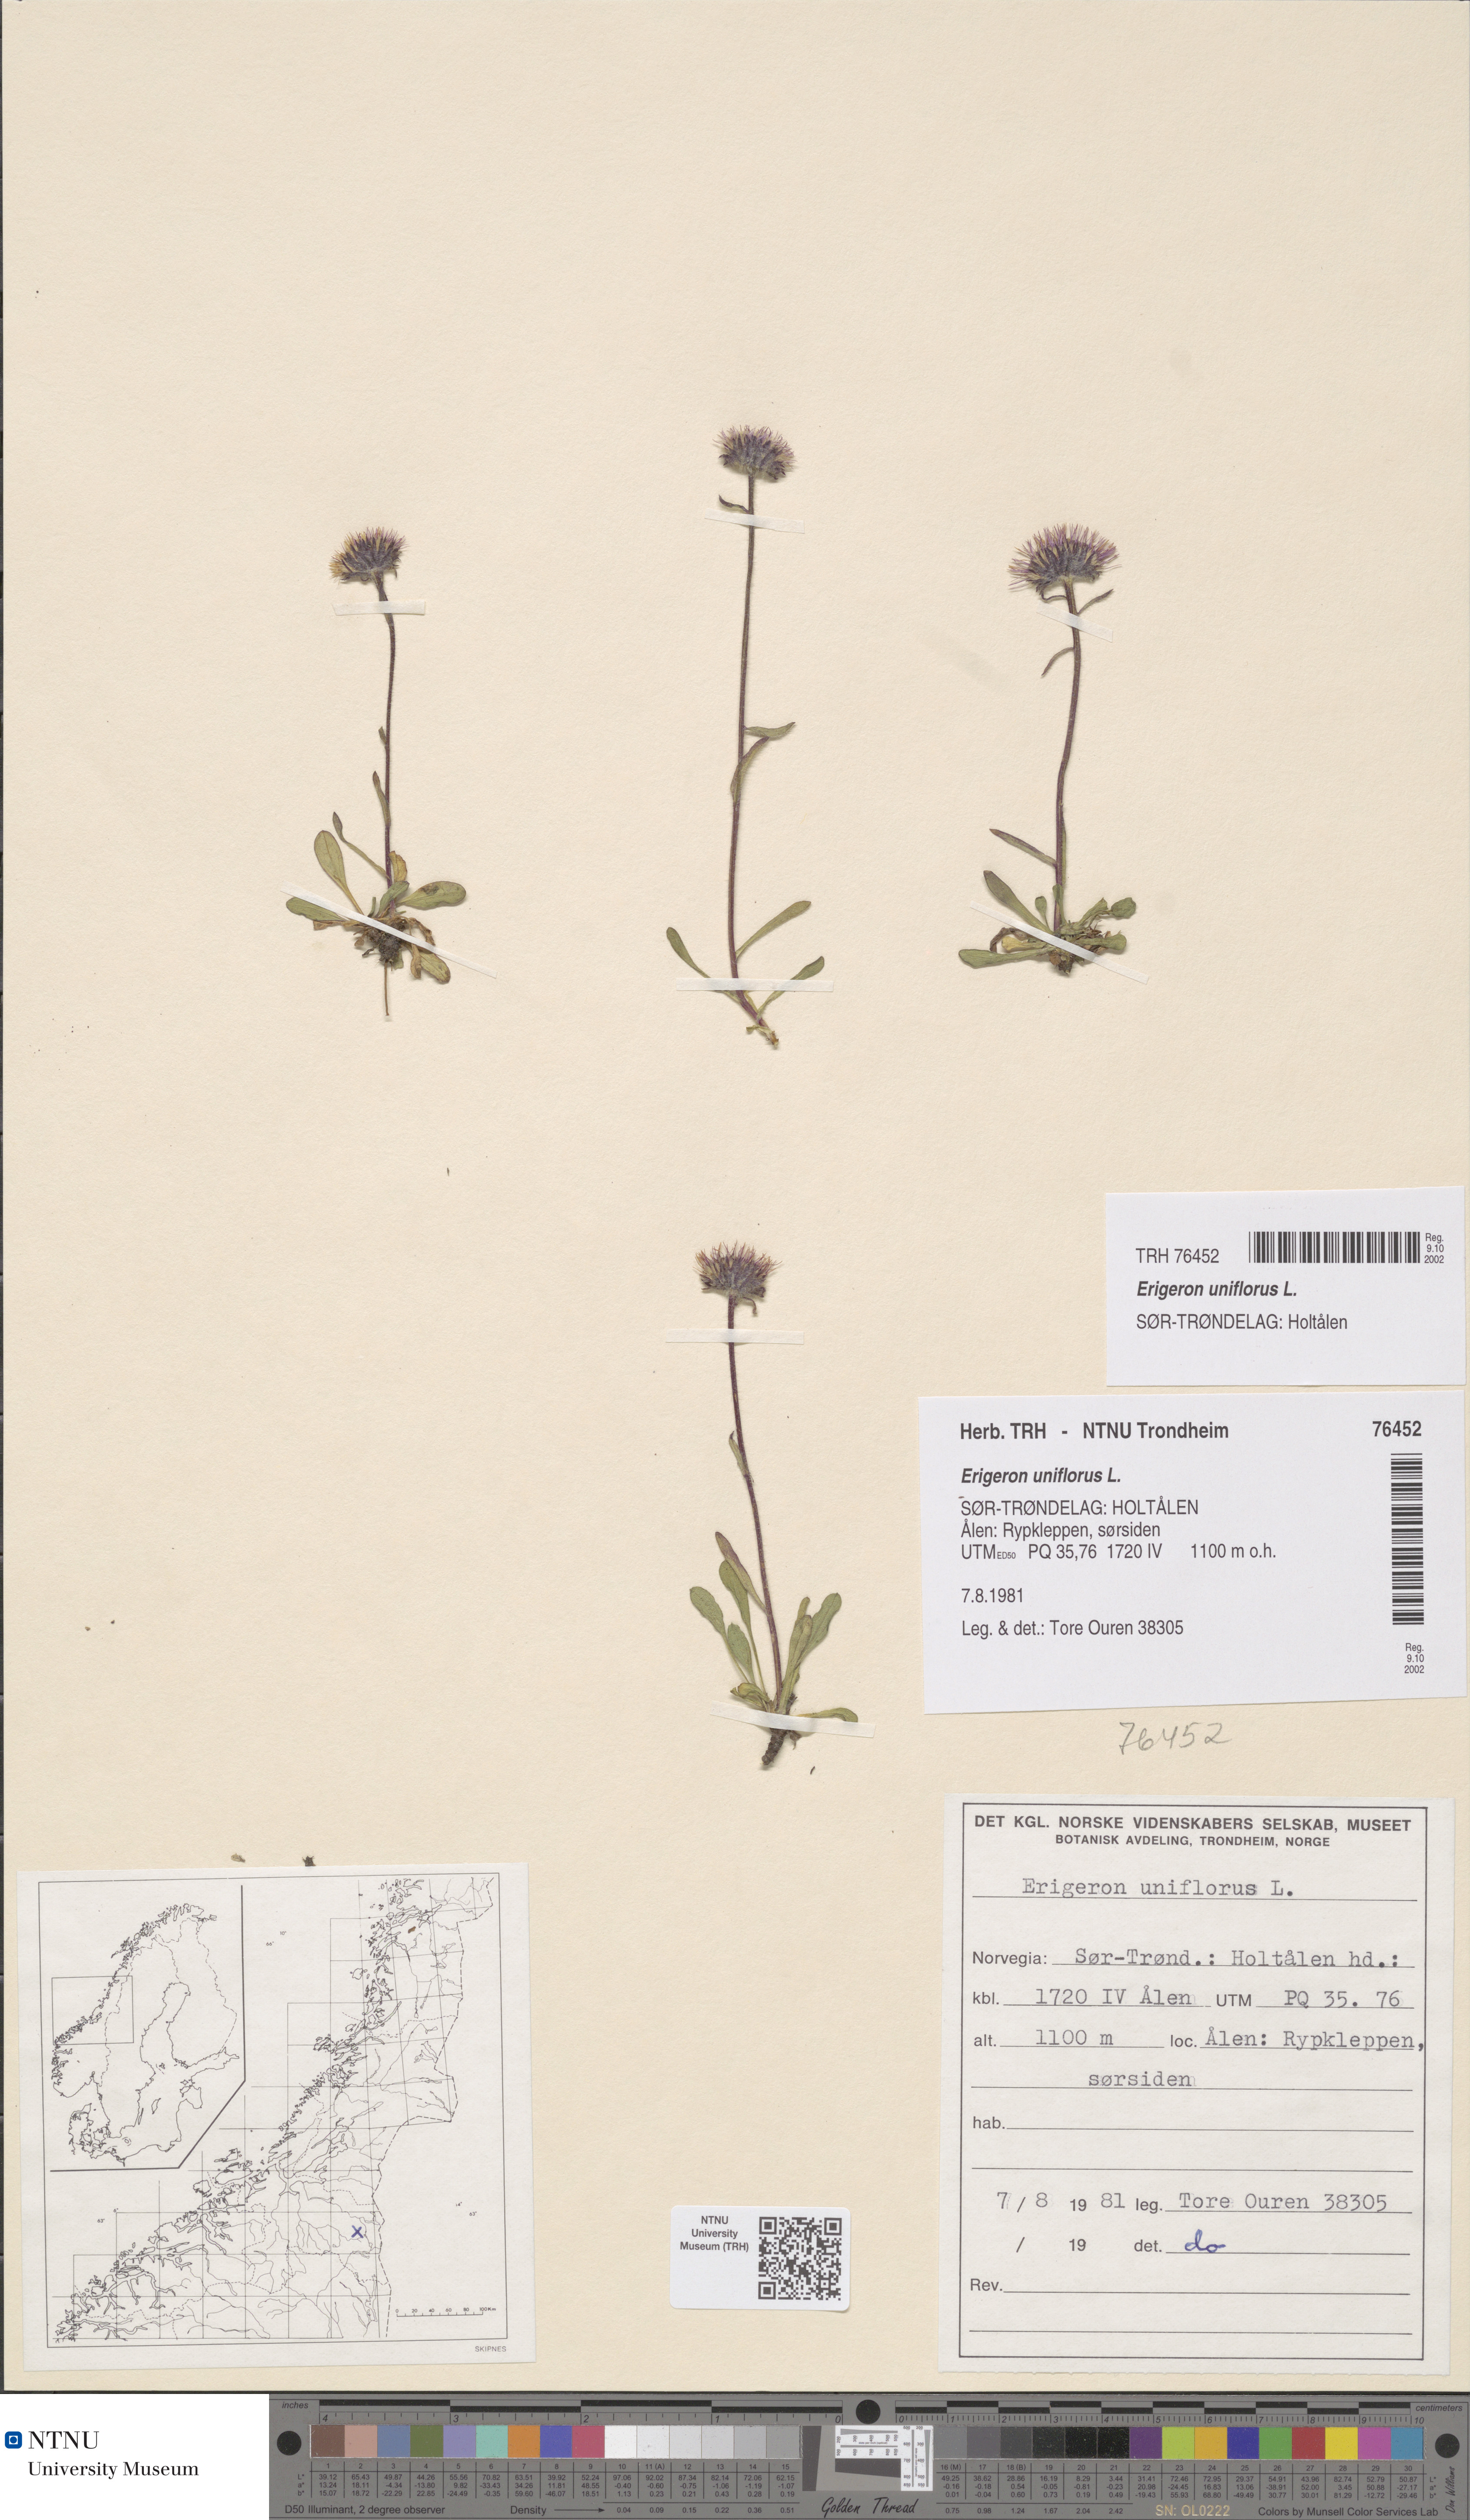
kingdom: Plantae
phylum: Tracheophyta
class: Magnoliopsida
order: Asterales
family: Asteraceae
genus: Erigeron
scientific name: Erigeron uniflorus
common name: Northern daisy
